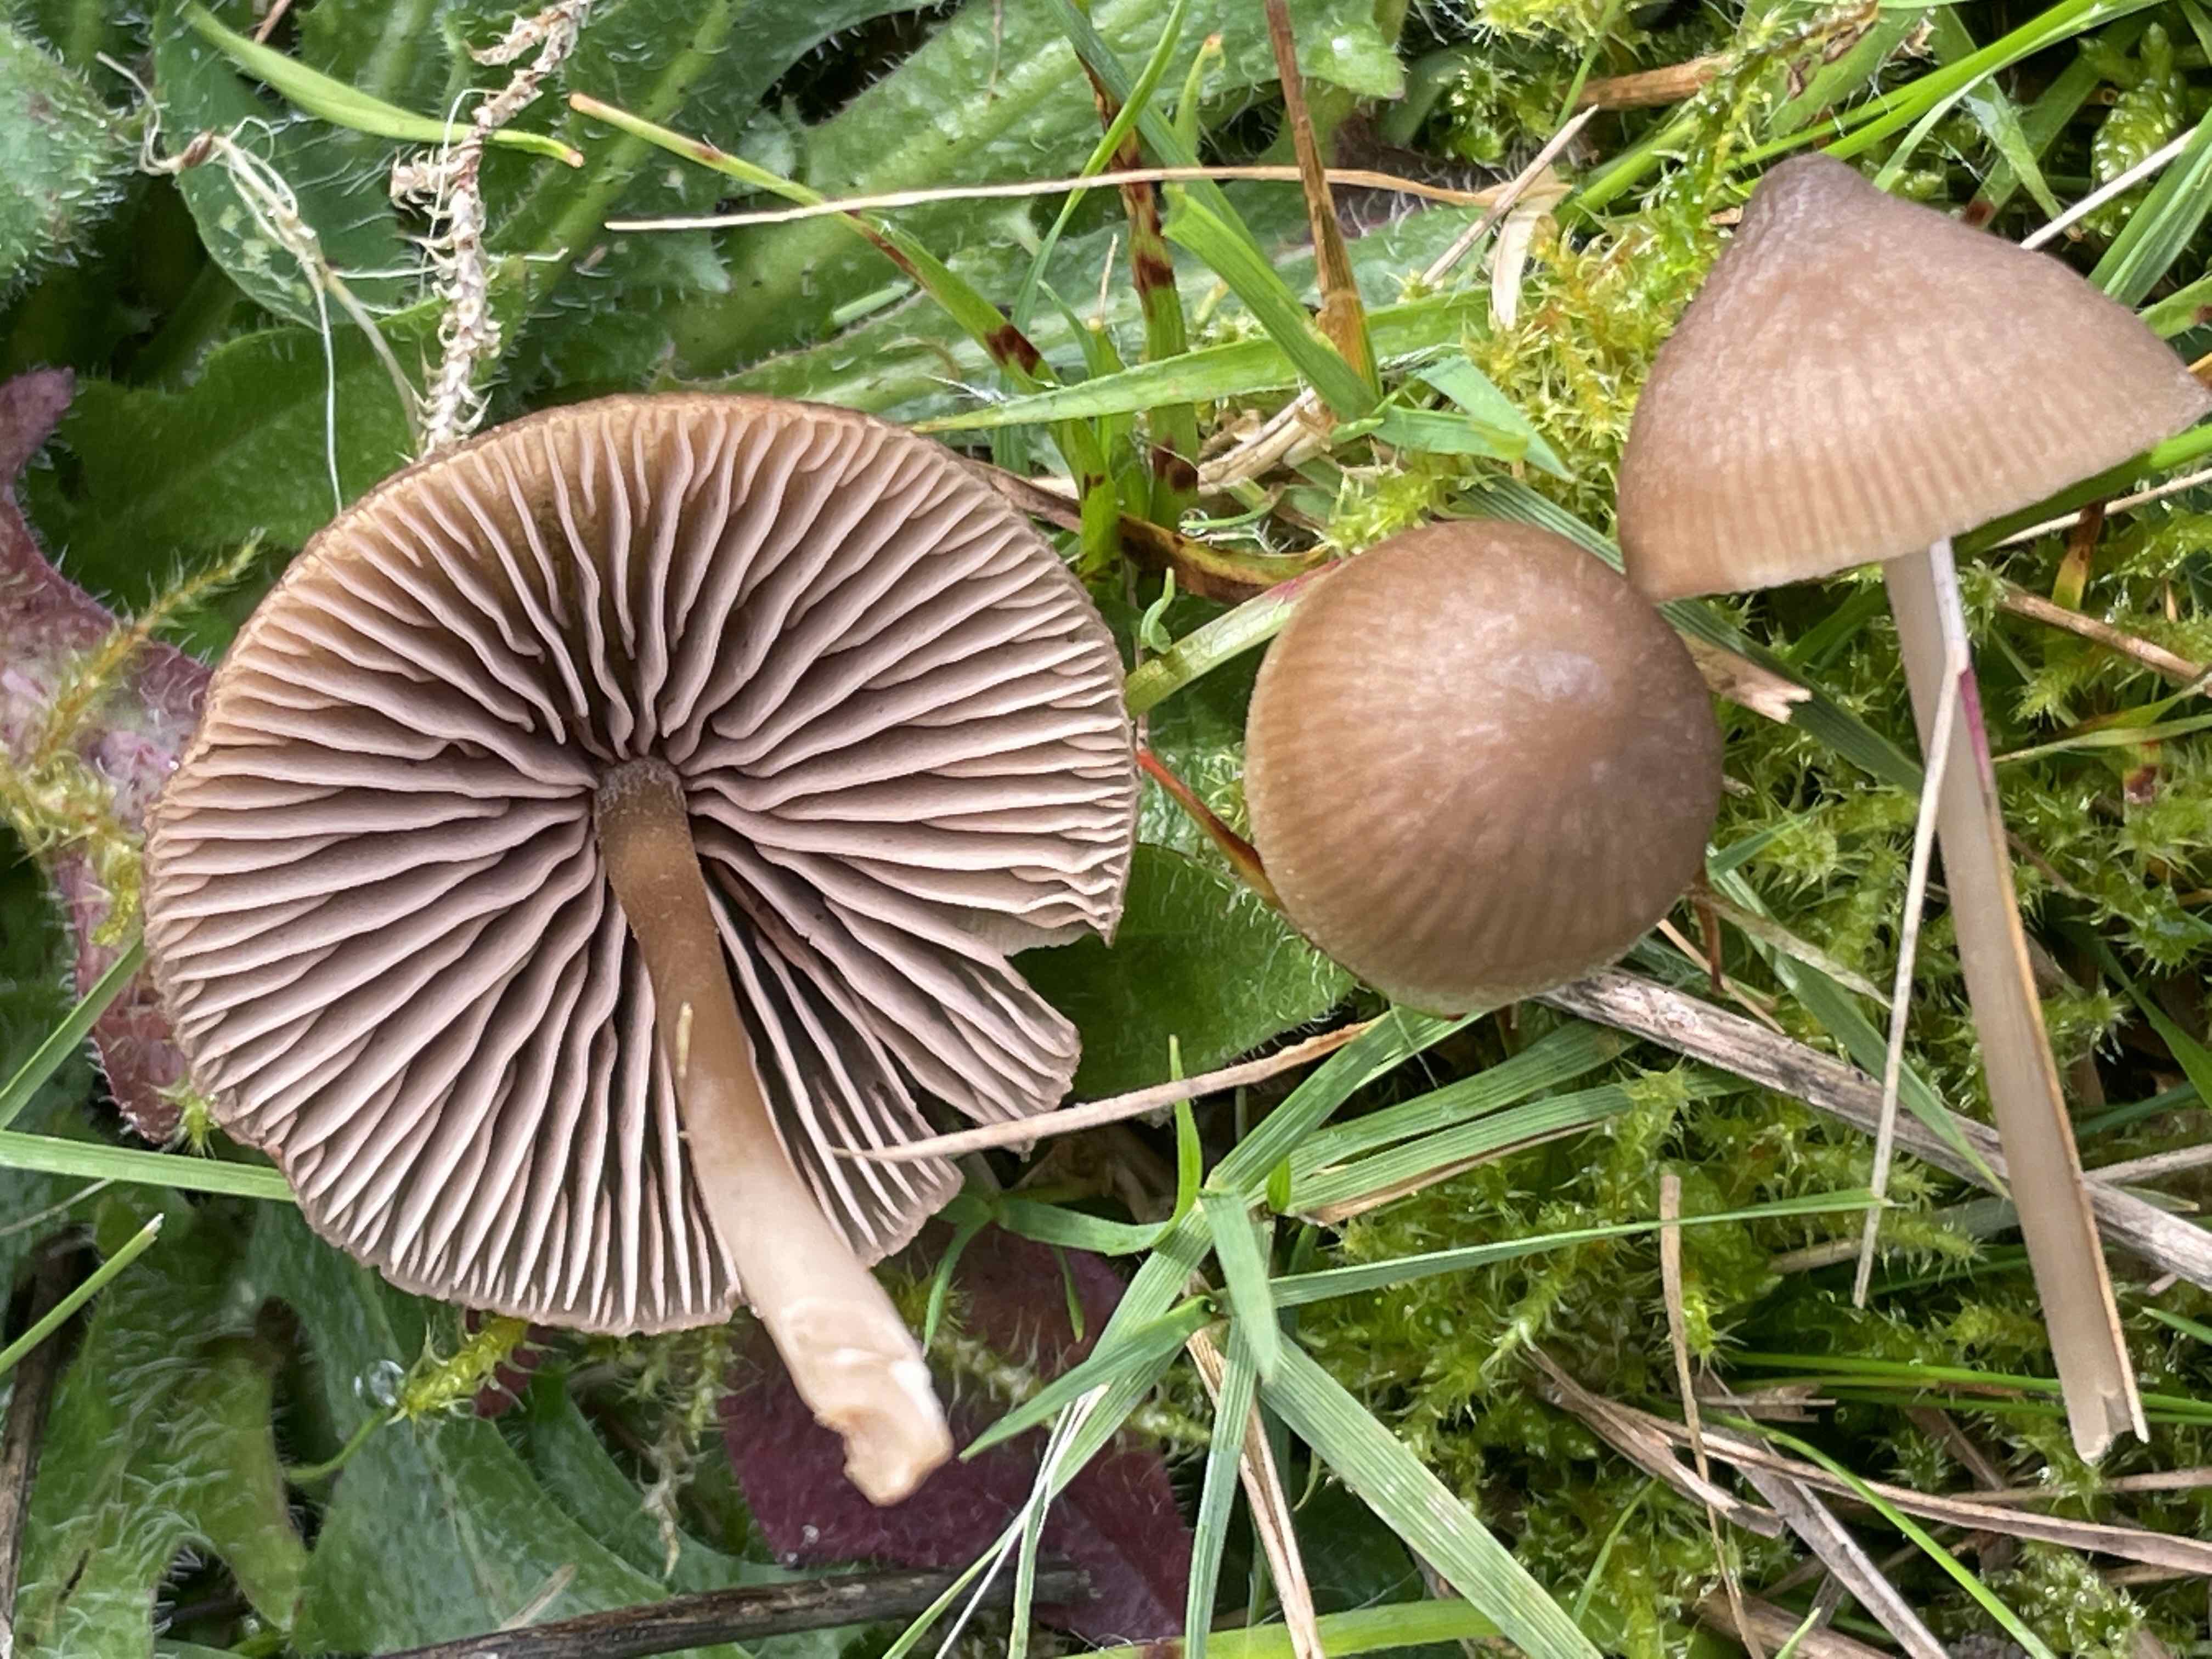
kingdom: Fungi
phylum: Basidiomycota
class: Agaricomycetes
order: Agaricales
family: Entolomataceae
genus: Entoloma
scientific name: Entoloma
